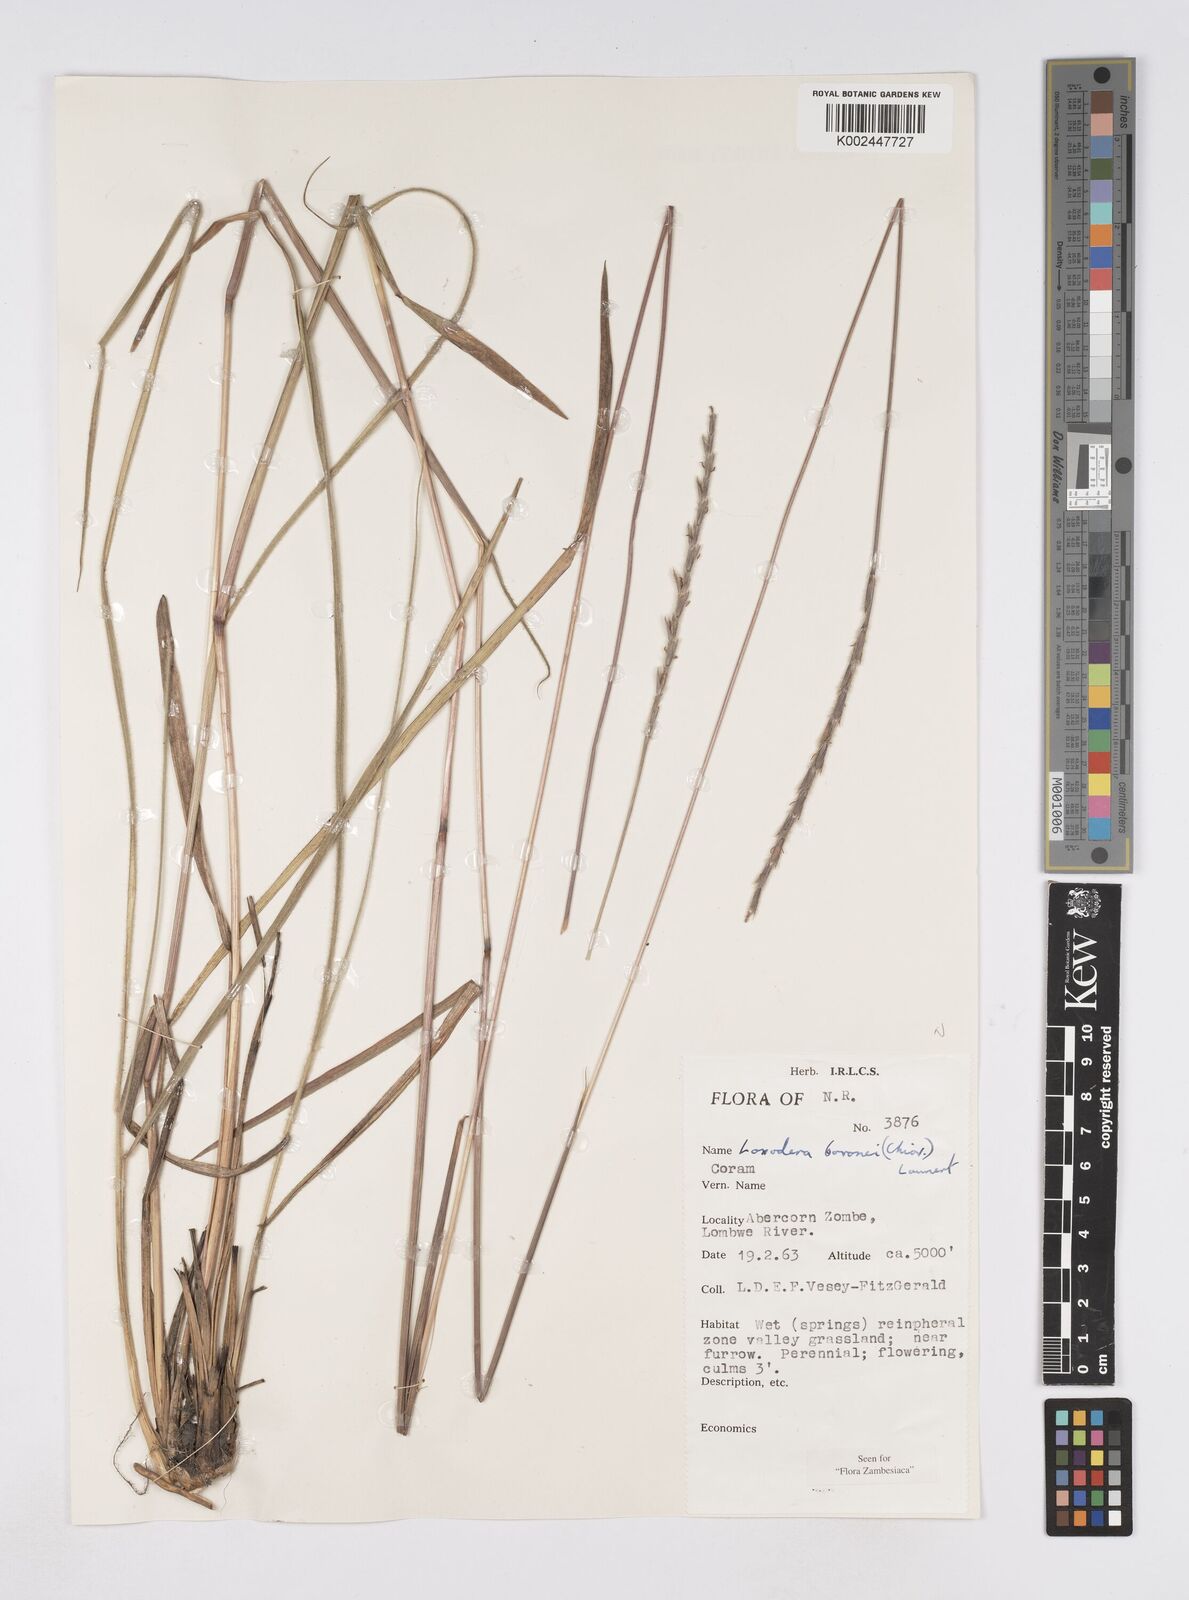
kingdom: Plantae
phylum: Tracheophyta
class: Liliopsida
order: Poales
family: Poaceae
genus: Loxodera
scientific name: Loxodera bovonei
